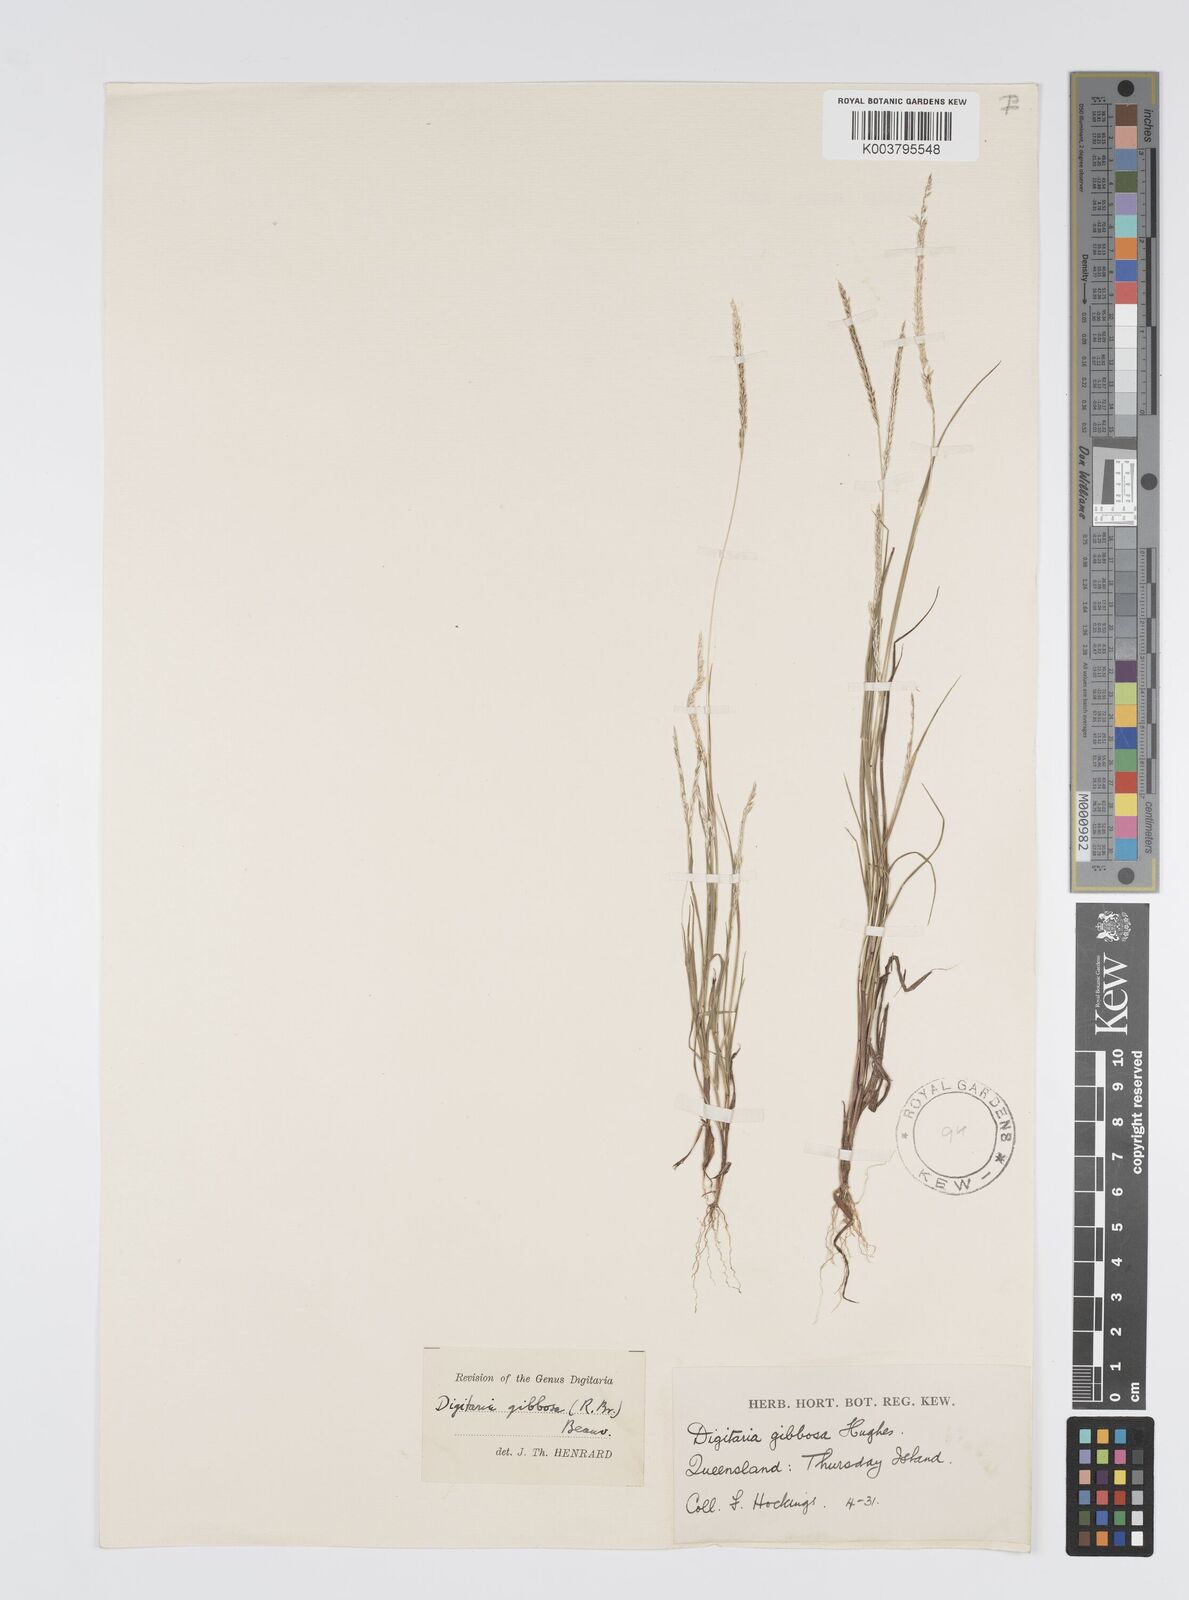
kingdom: Plantae
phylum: Tracheophyta
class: Liliopsida
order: Poales
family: Poaceae
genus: Digitaria
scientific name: Digitaria gibbosa
